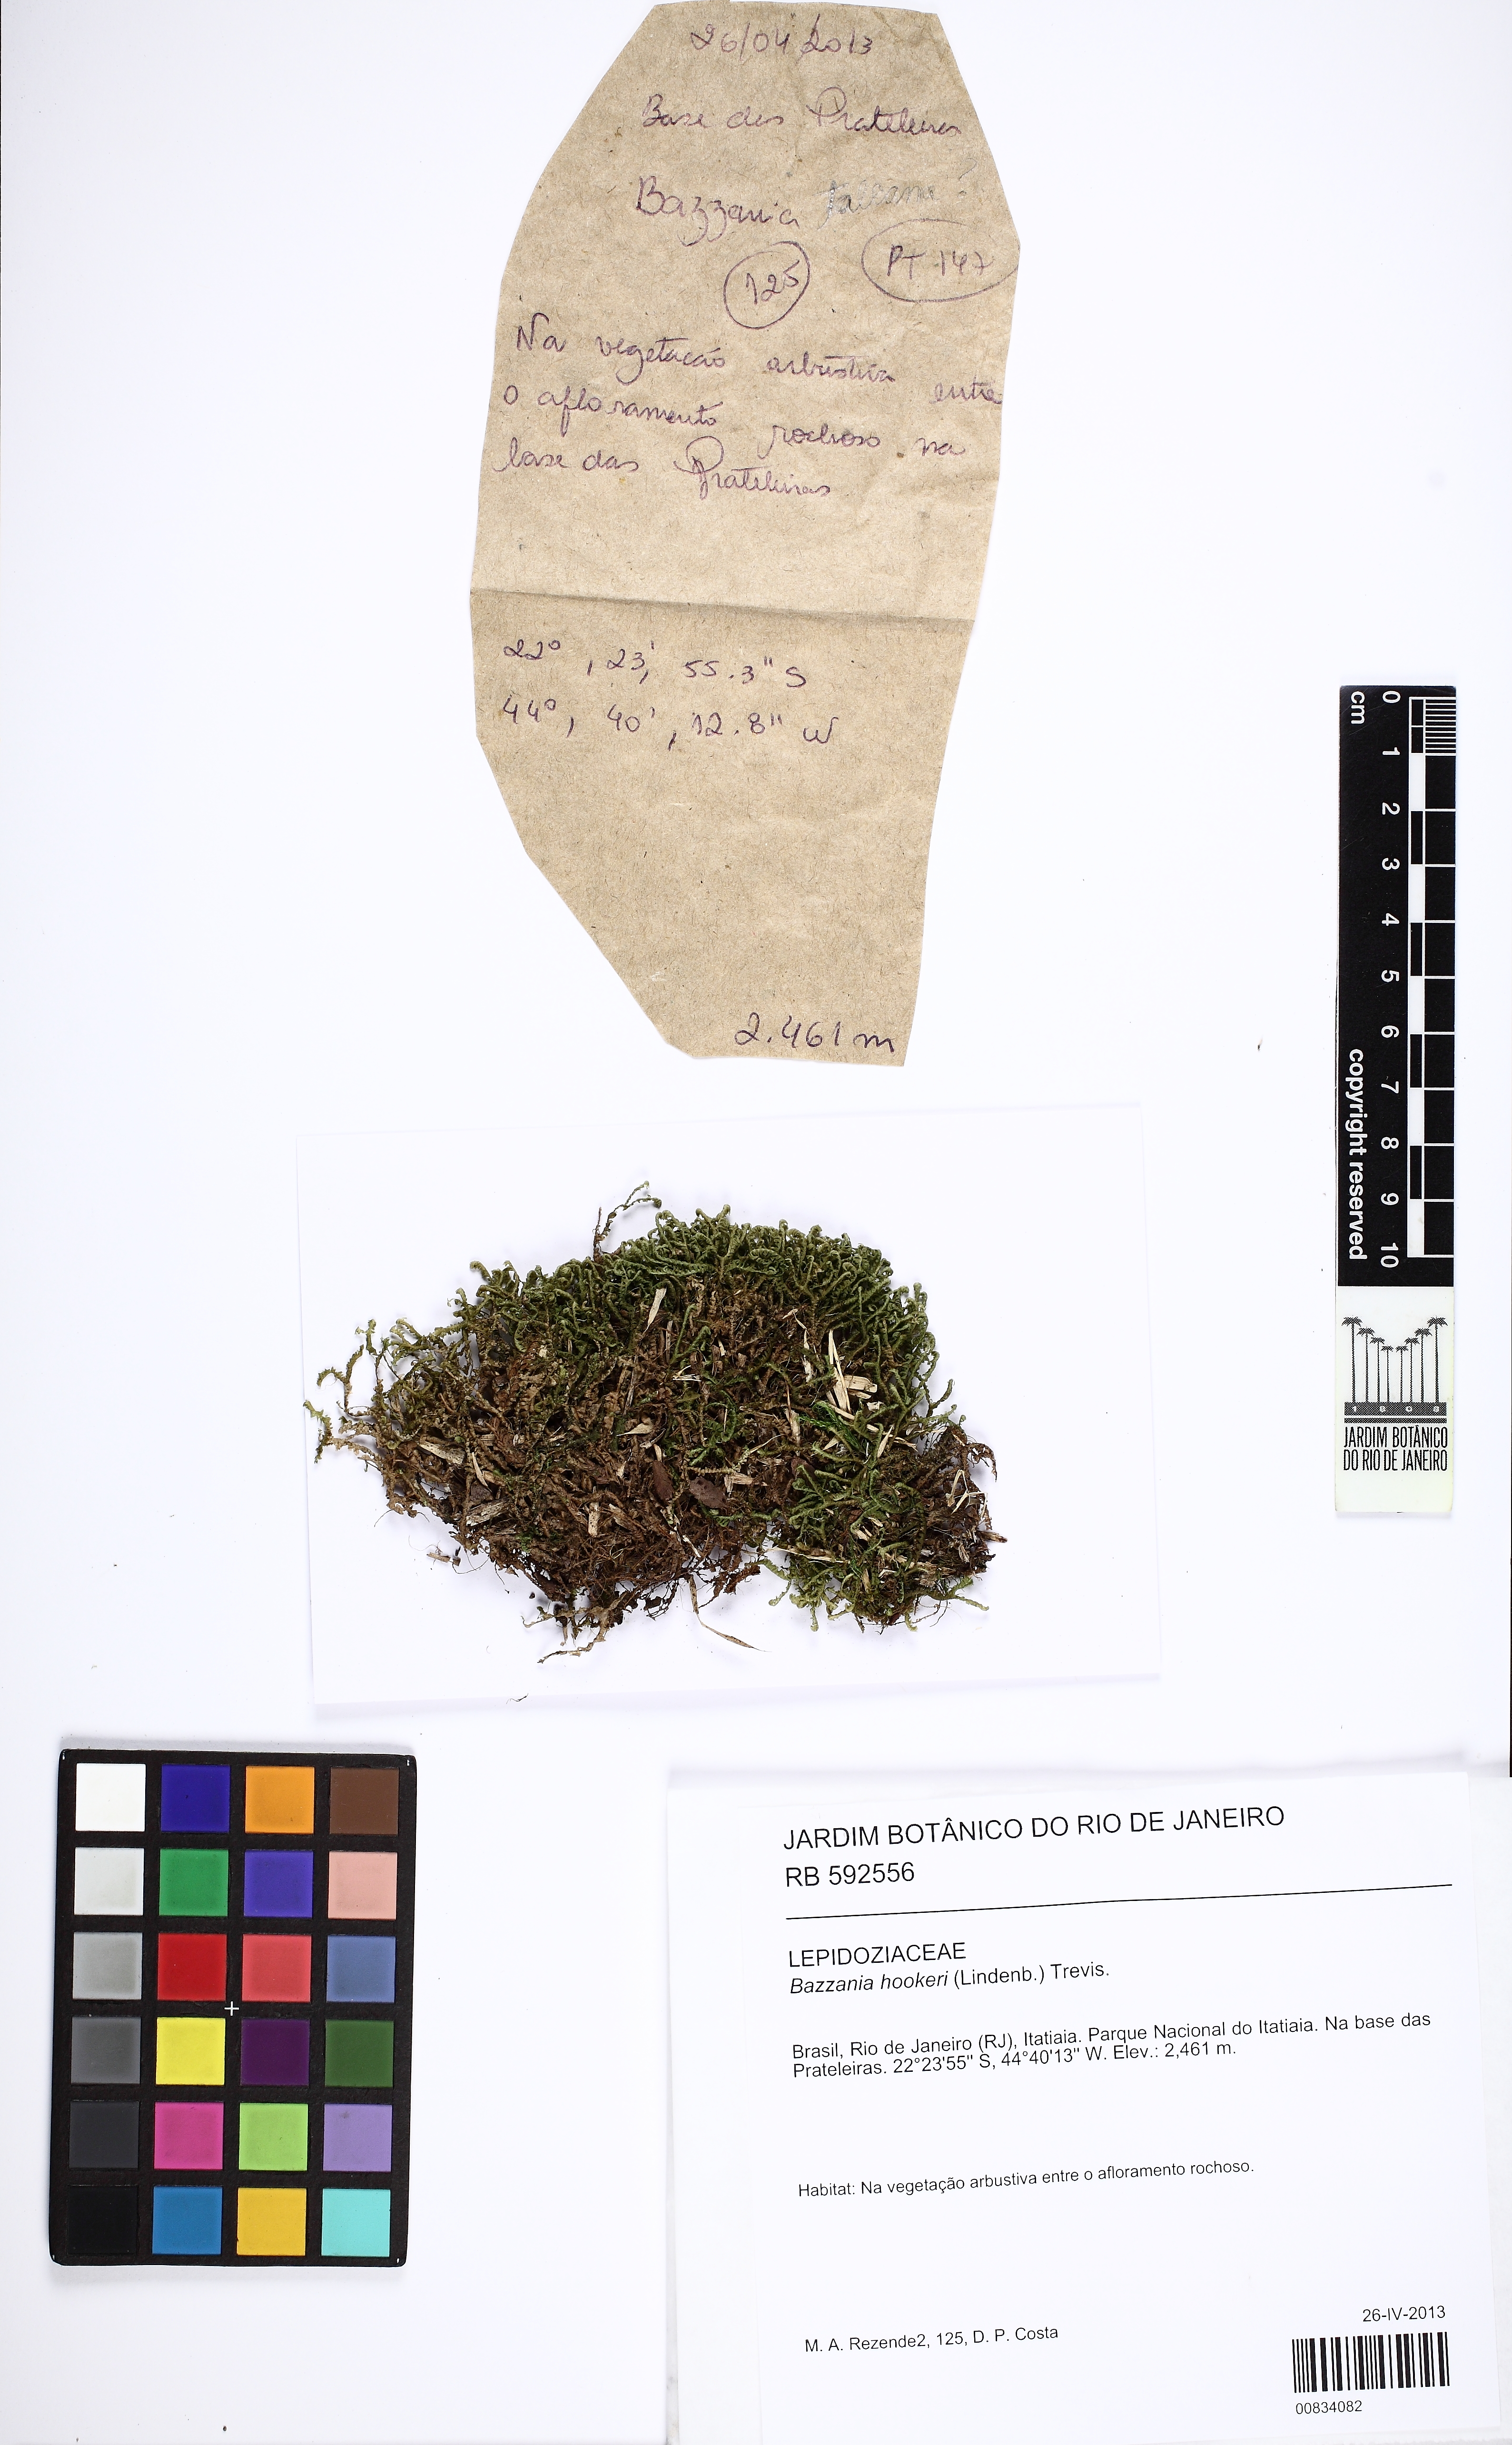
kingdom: Plantae
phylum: Marchantiophyta
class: Jungermanniopsida
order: Jungermanniales
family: Lepidoziaceae
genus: Bazzania
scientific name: Bazzania hookeri
